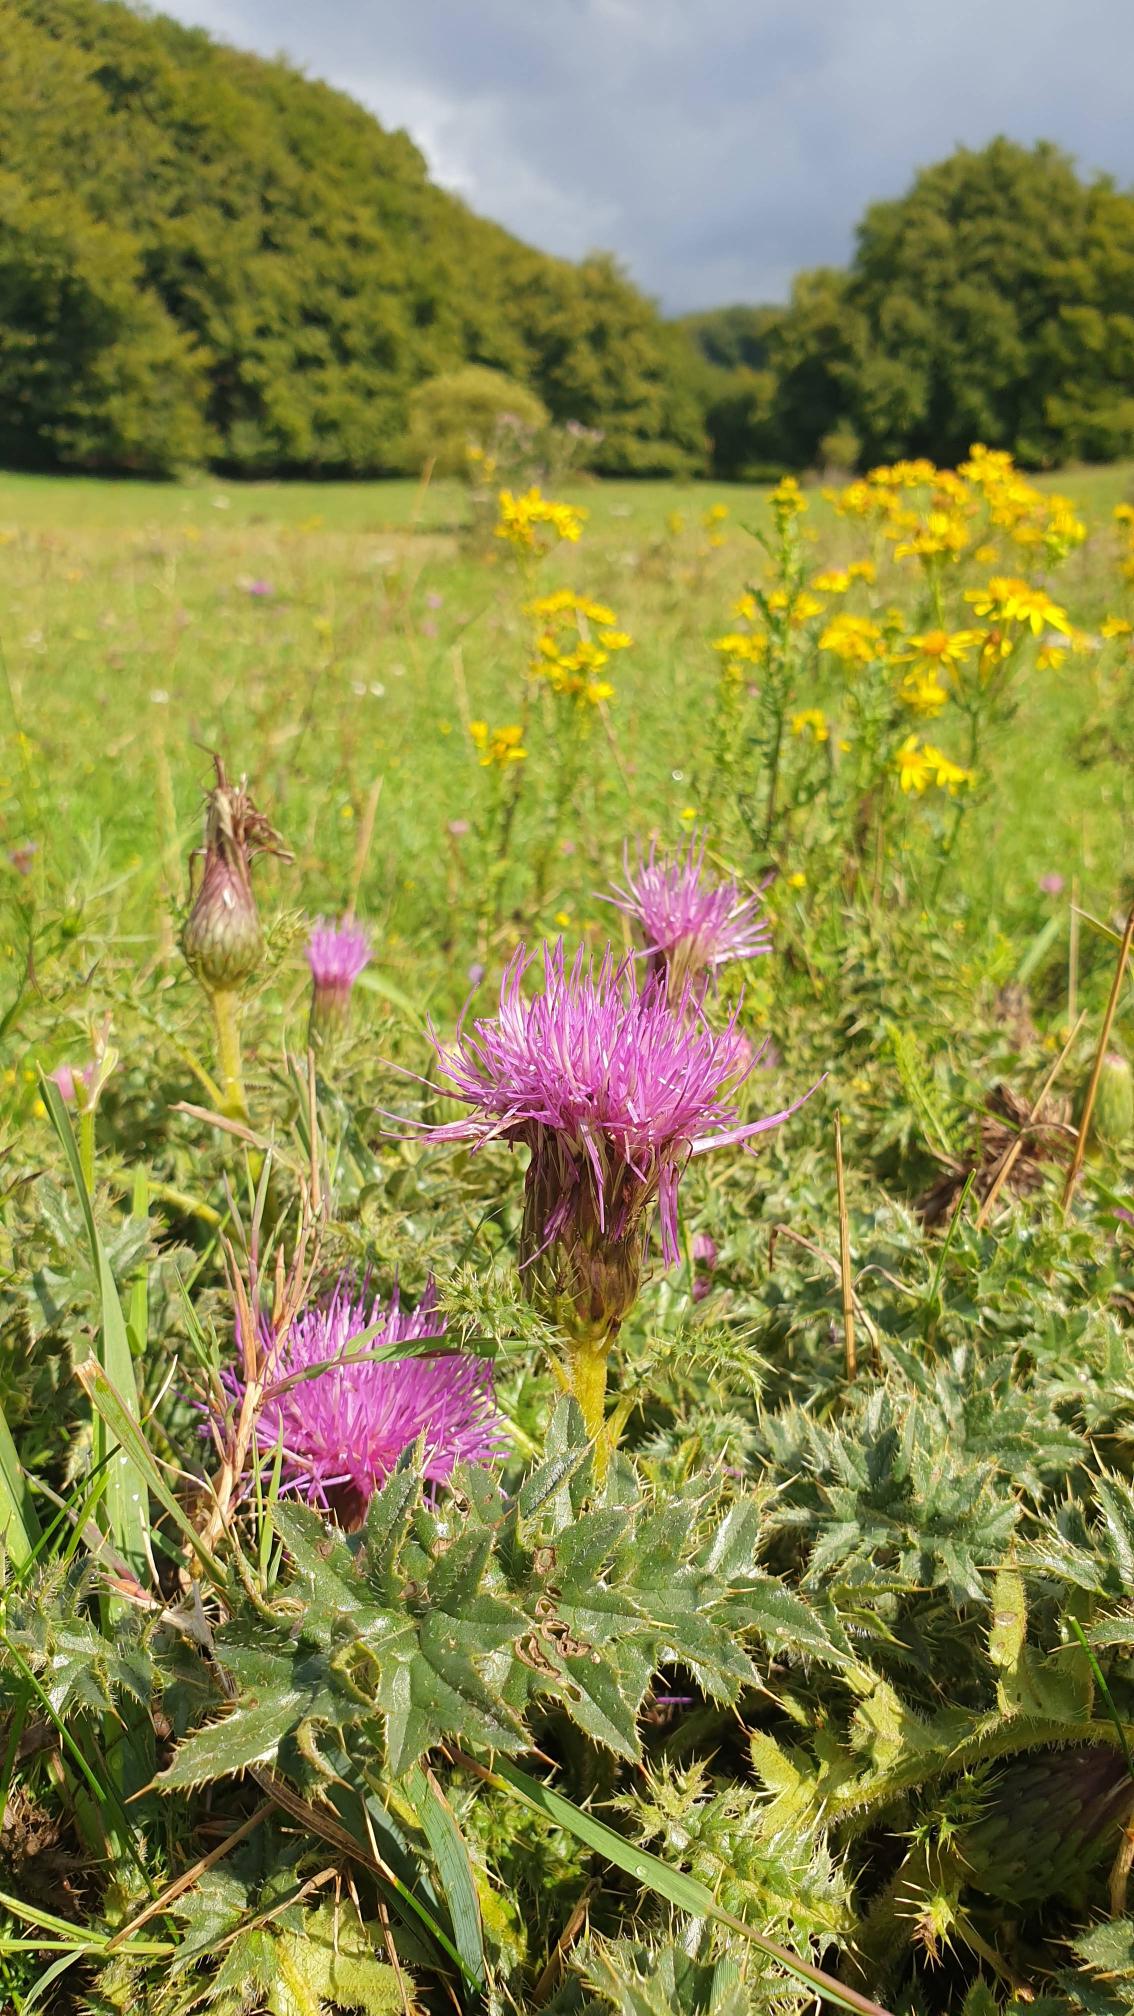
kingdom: Plantae
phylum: Tracheophyta
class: Magnoliopsida
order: Asterales
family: Asteraceae
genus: Cirsium
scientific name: Cirsium acaule
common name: Lav tidsel
